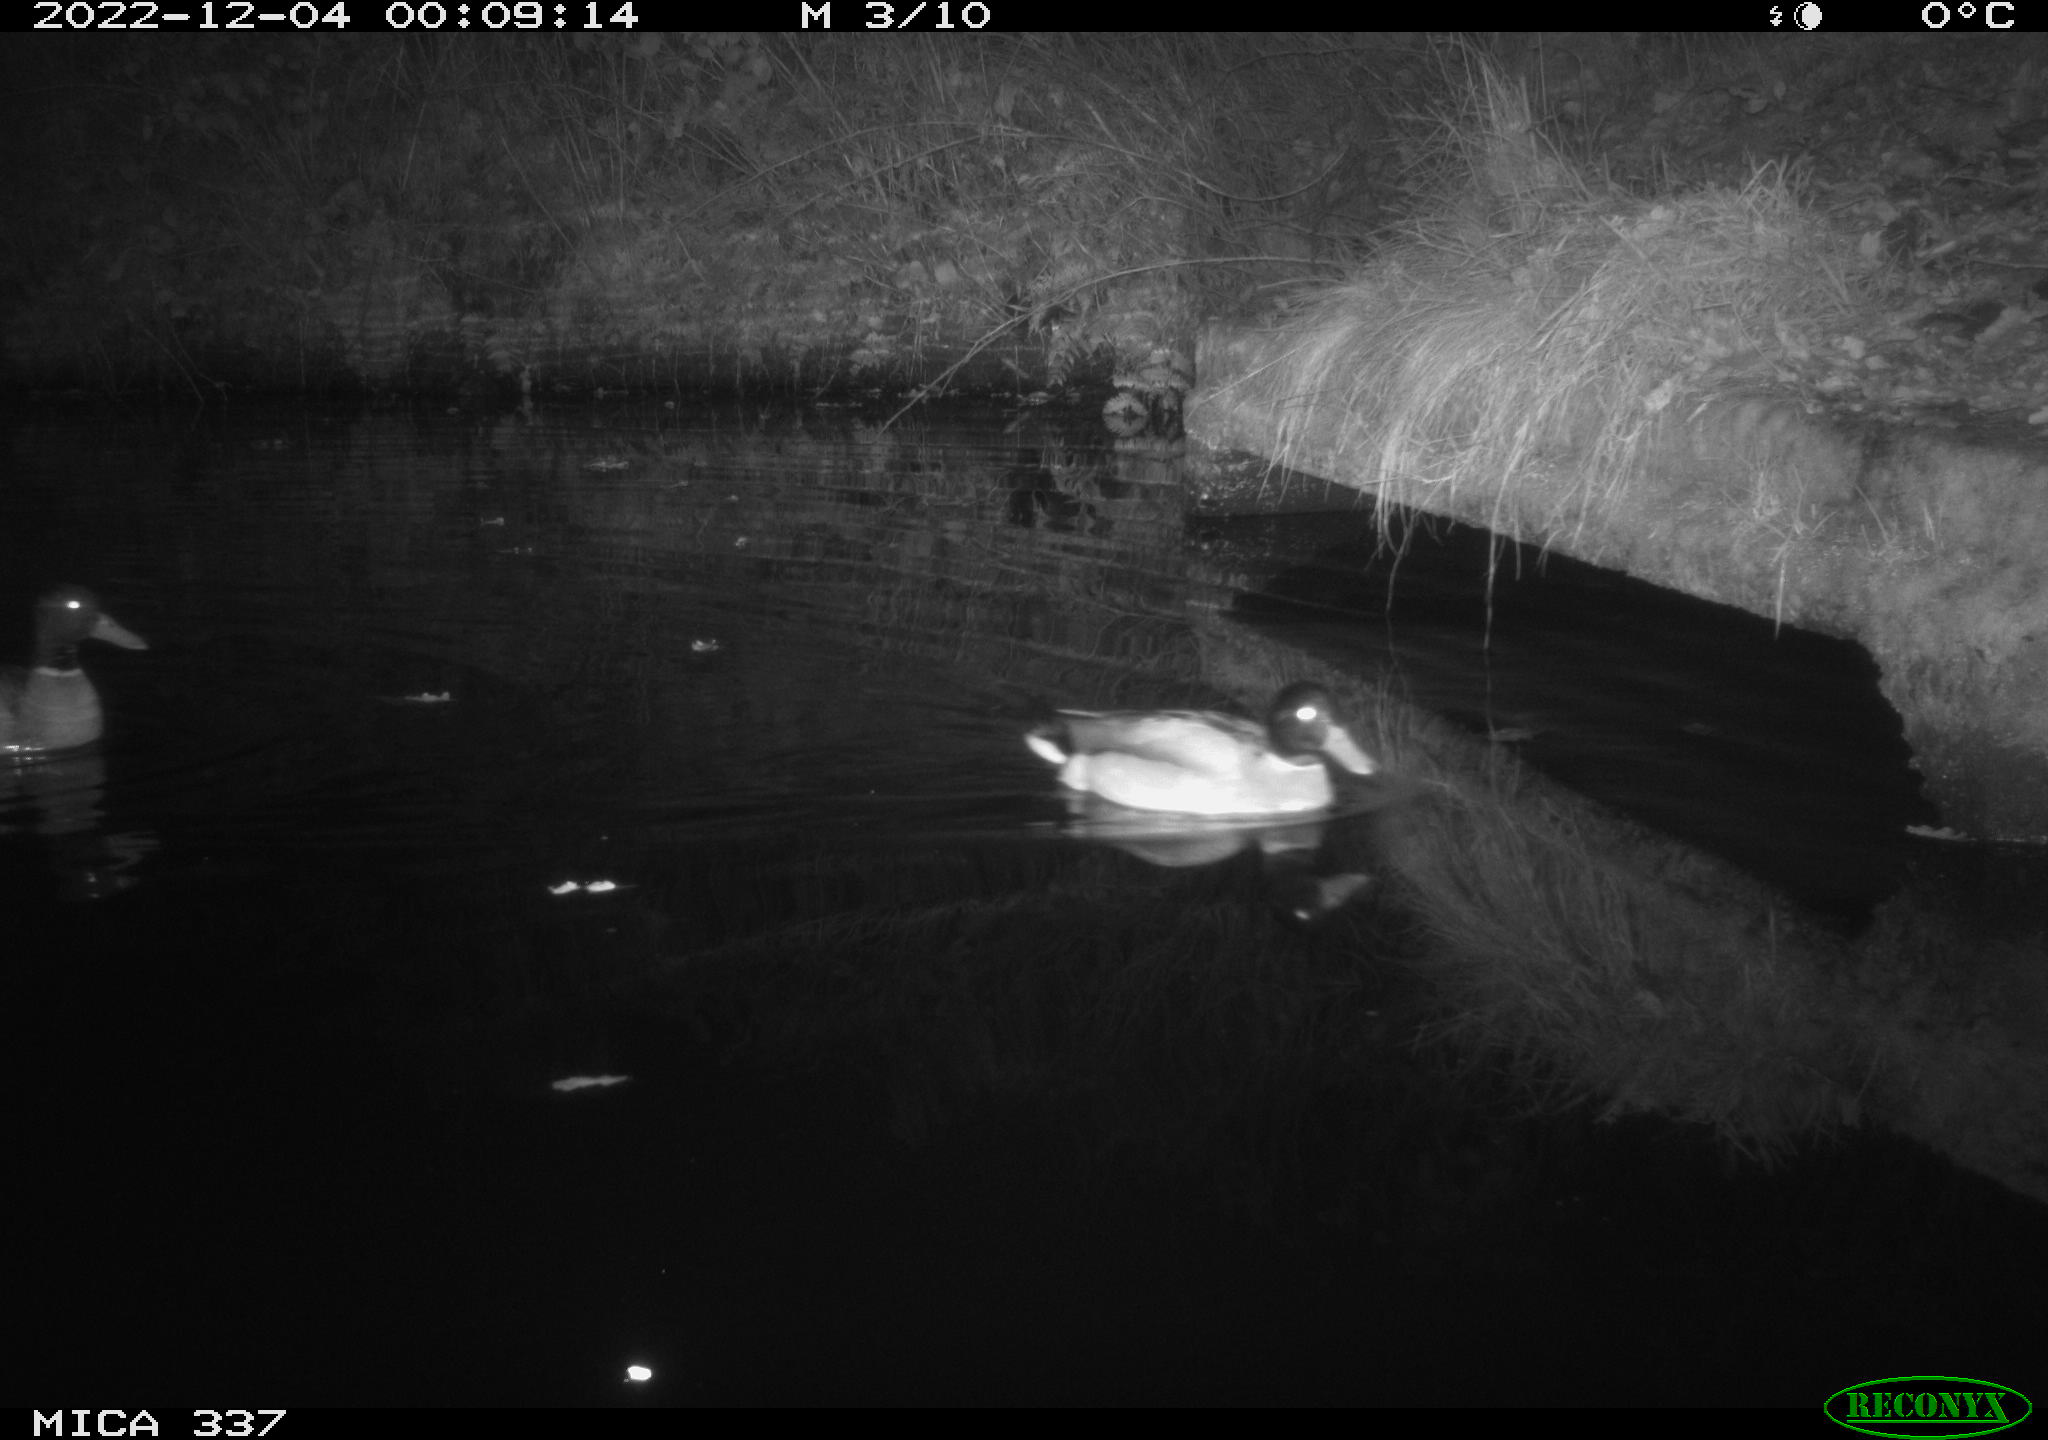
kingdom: Animalia
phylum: Chordata
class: Aves
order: Anseriformes
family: Anatidae
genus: Anas
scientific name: Anas
